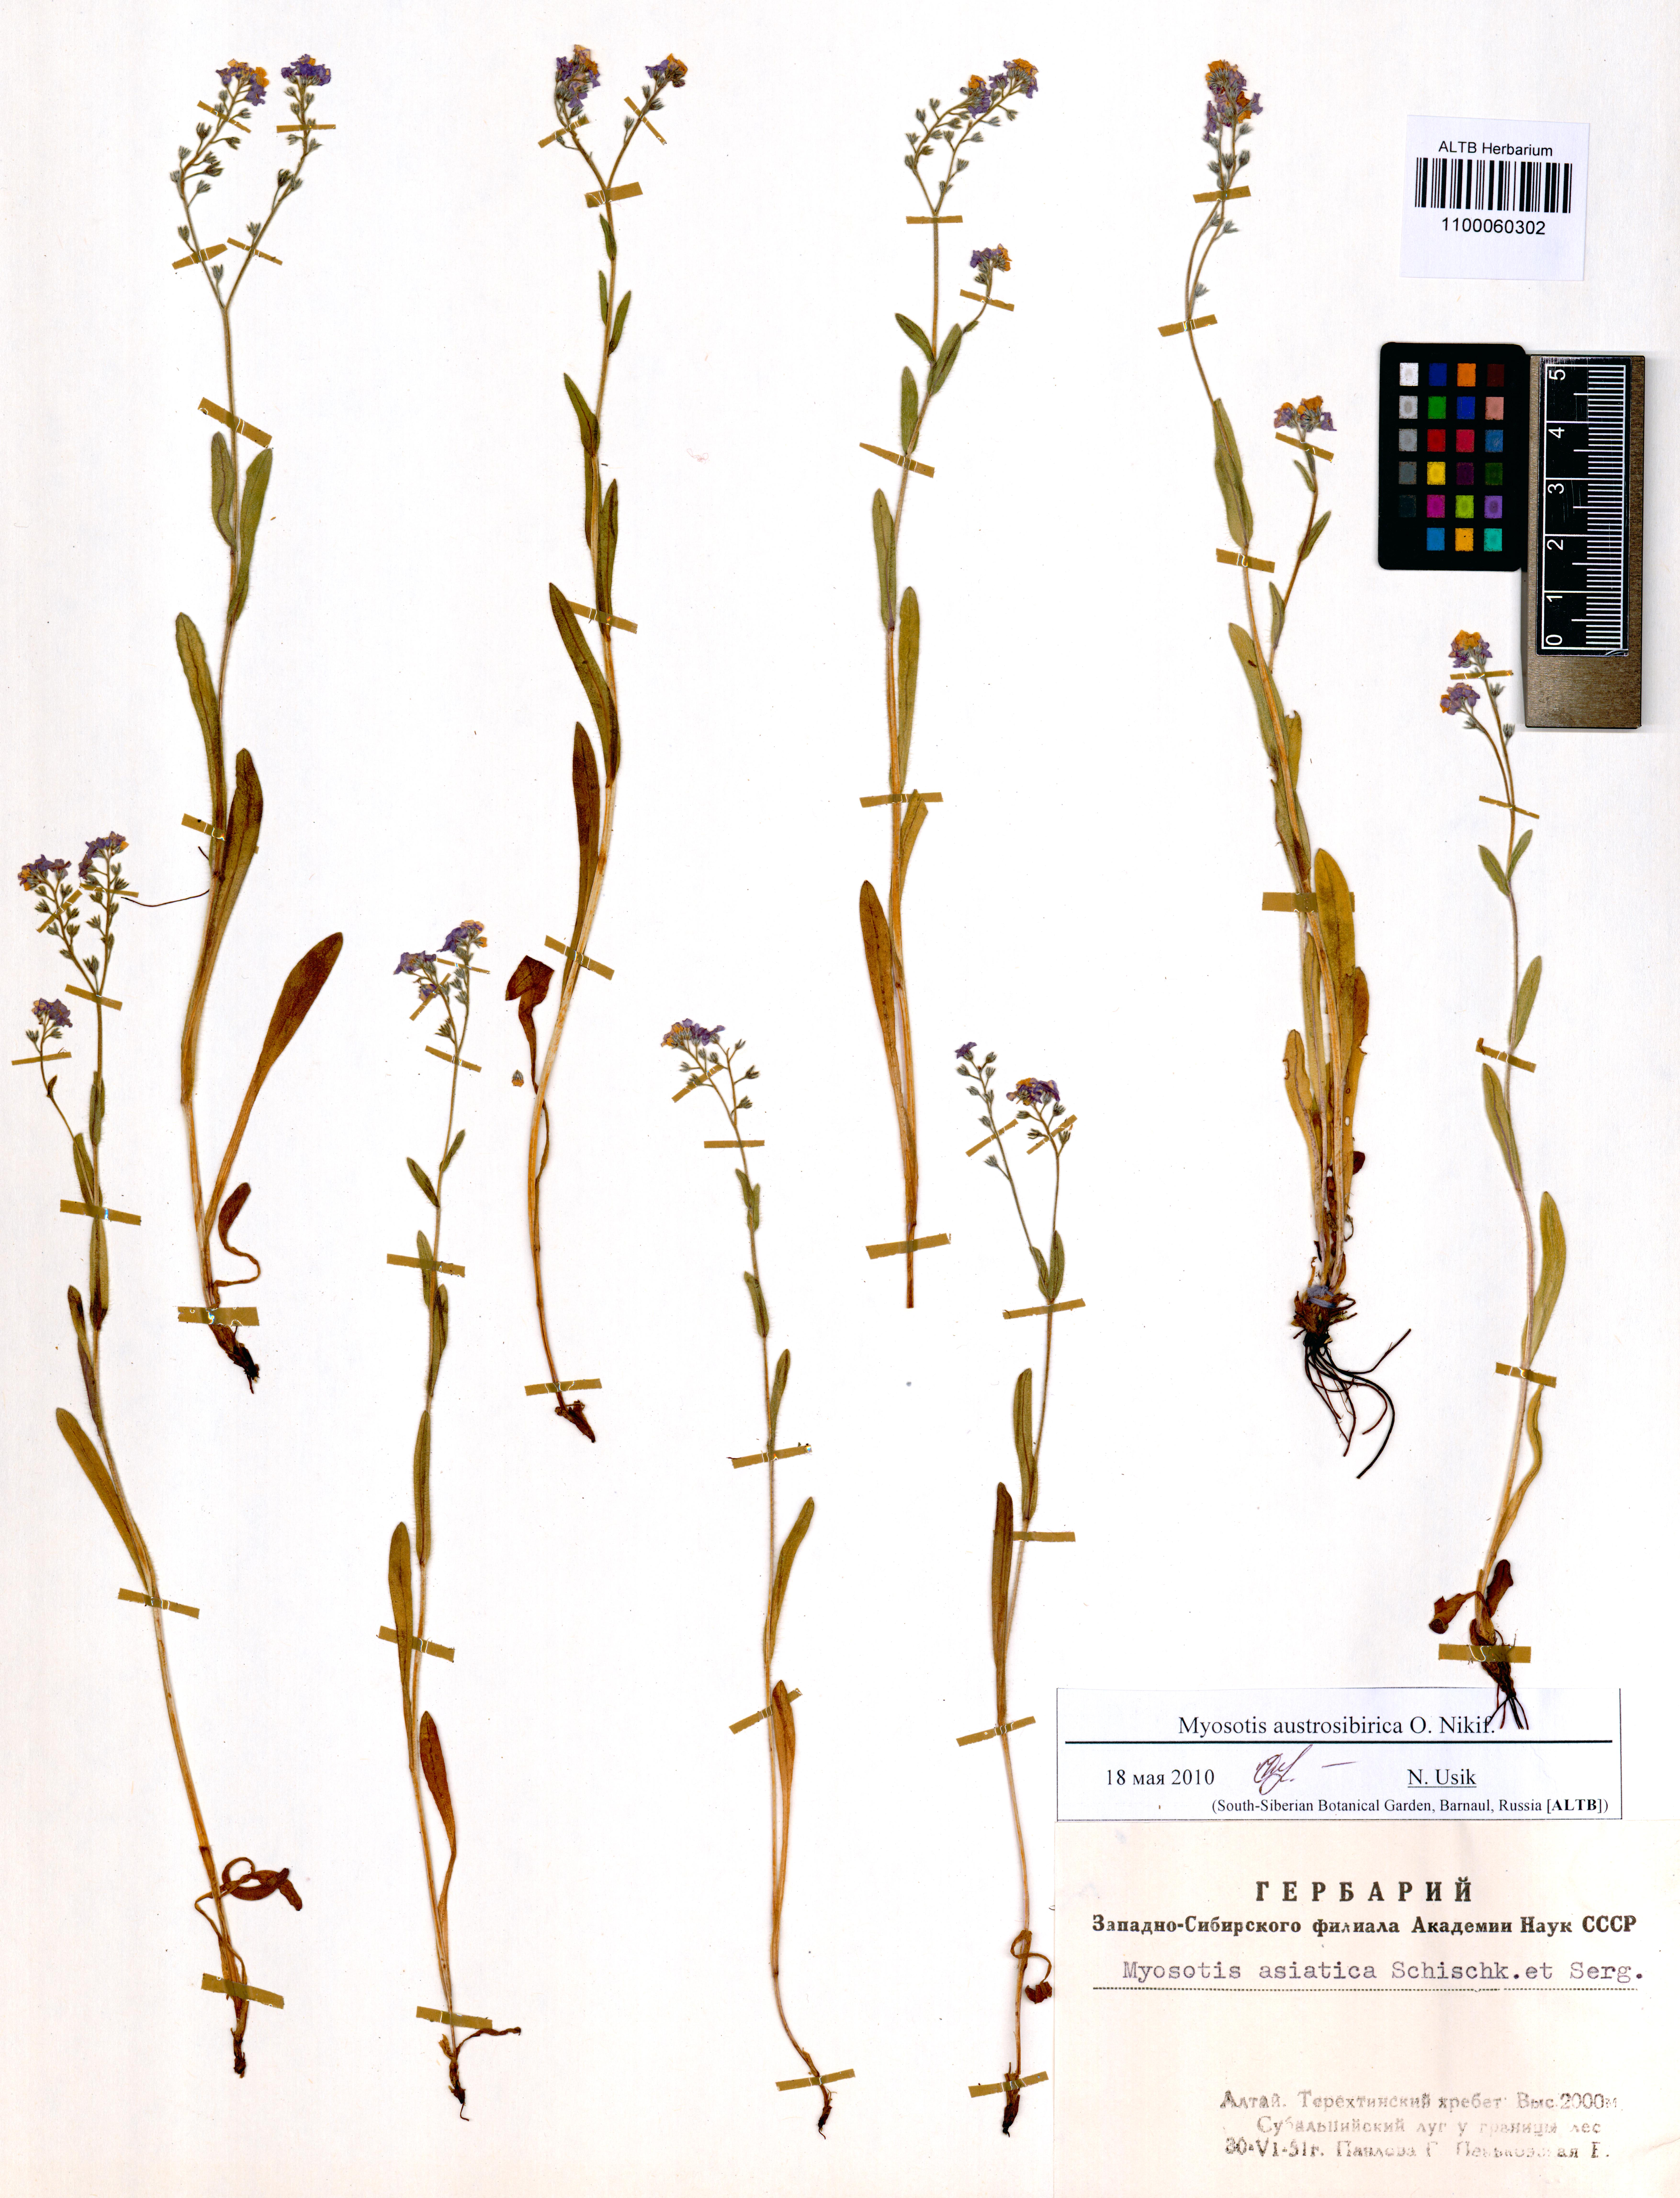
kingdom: Plantae
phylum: Tracheophyta
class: Magnoliopsida
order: Boraginales
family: Boraginaceae
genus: Myosotis
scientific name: Myosotis austrosibirica
